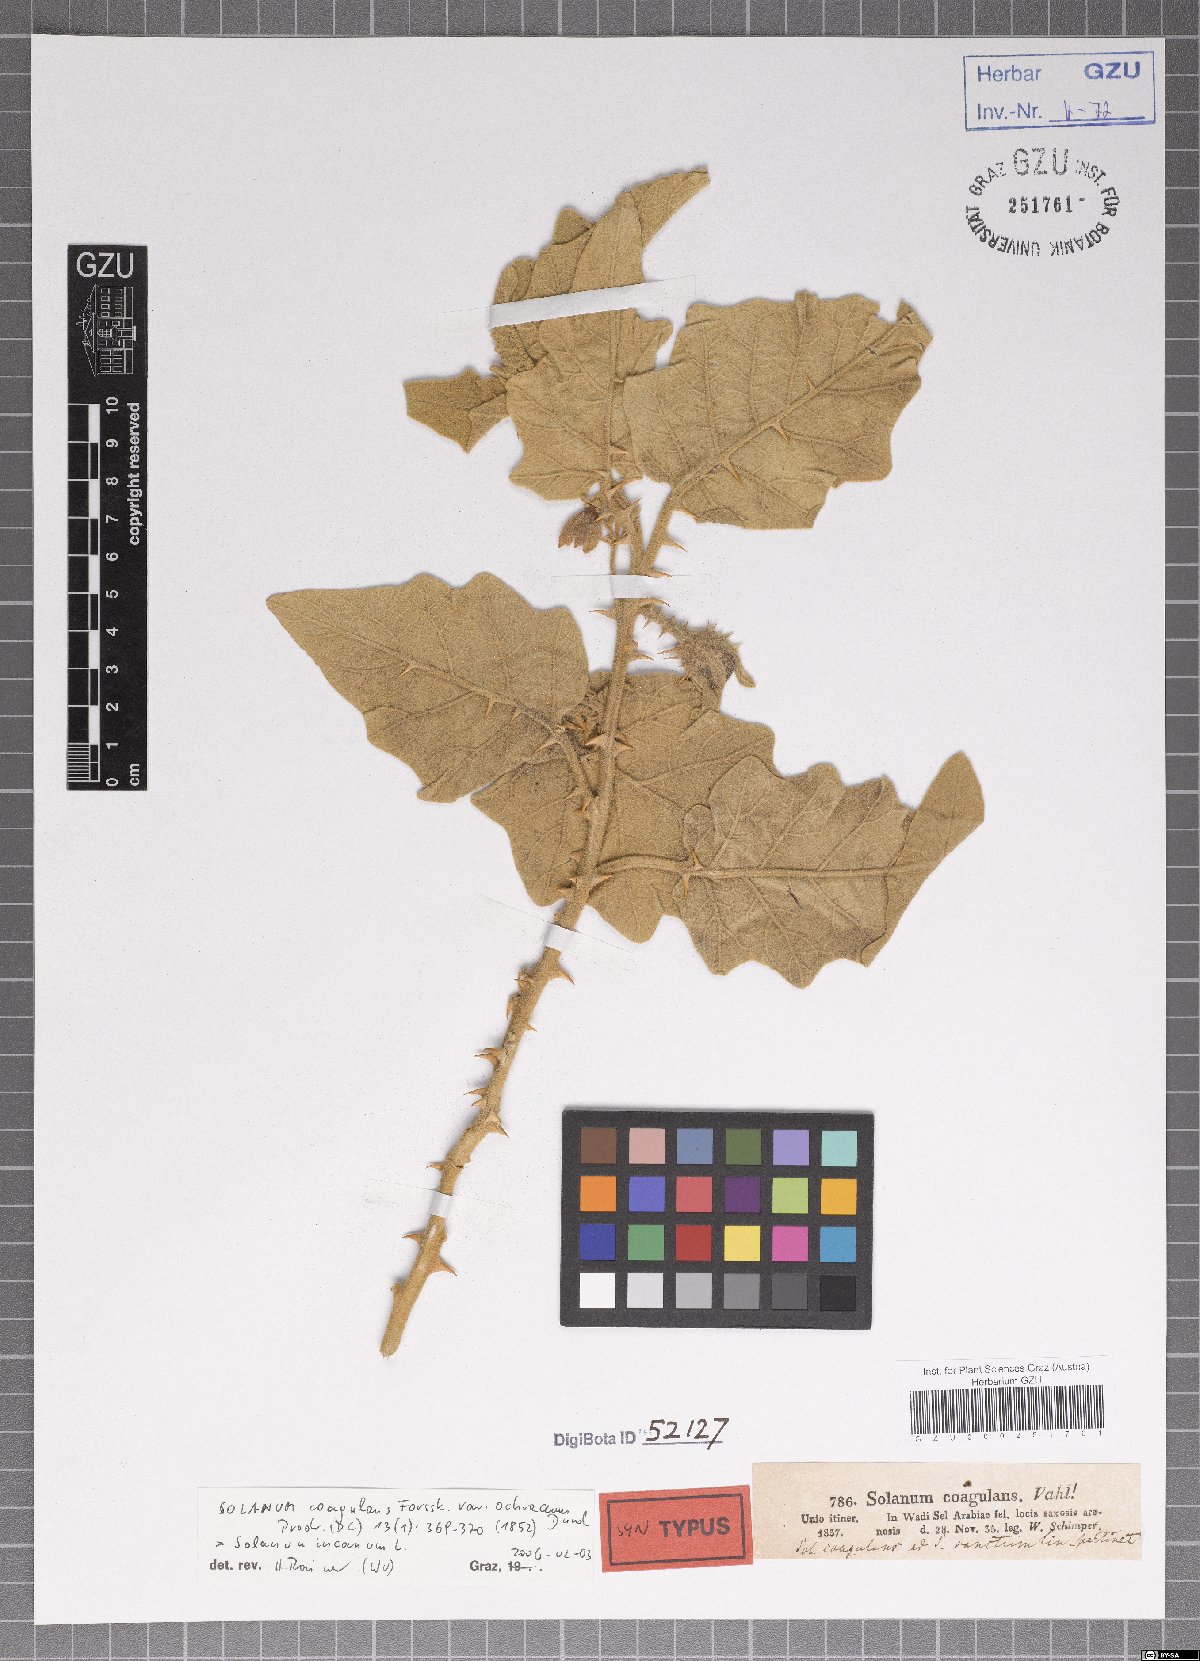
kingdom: Plantae
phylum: Tracheophyta
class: Magnoliopsida
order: Solanales
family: Solanaceae
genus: Solanum
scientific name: Solanum coagulans
